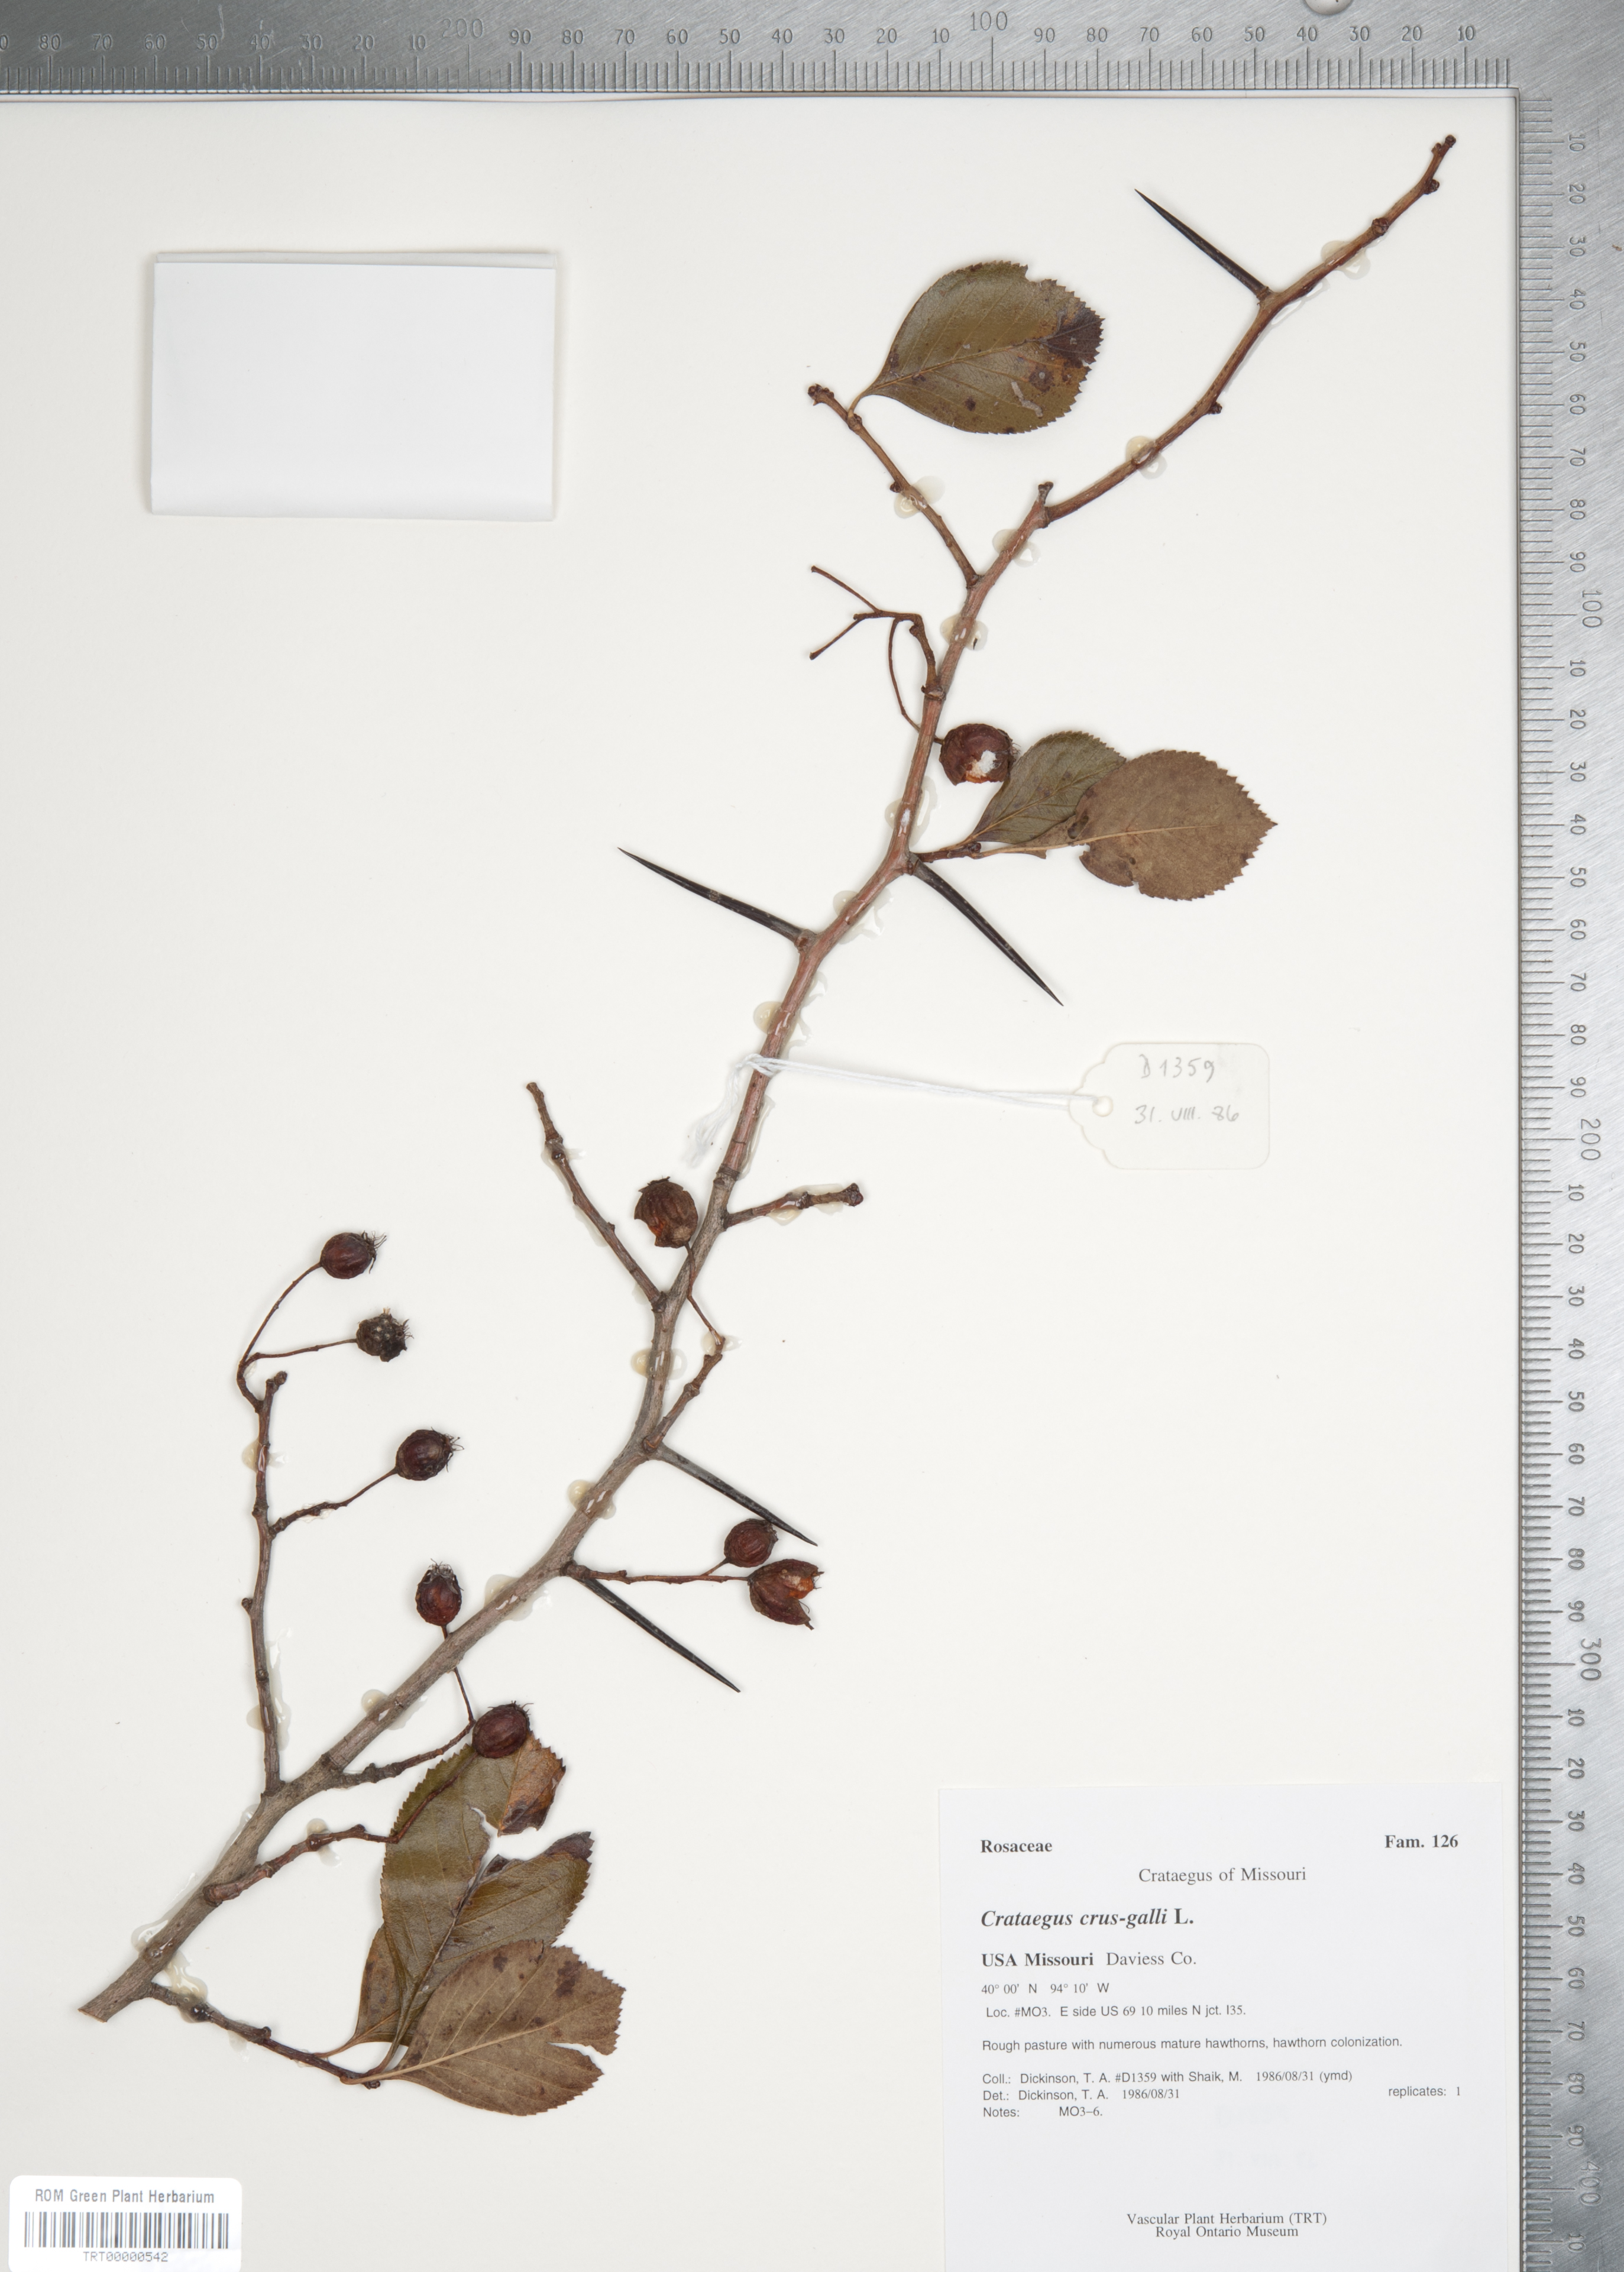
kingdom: Plantae
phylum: Tracheophyta
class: Magnoliopsida
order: Rosales
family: Rosaceae
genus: Crataegus
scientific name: Crataegus crus-galli
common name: Cockspurthorn
